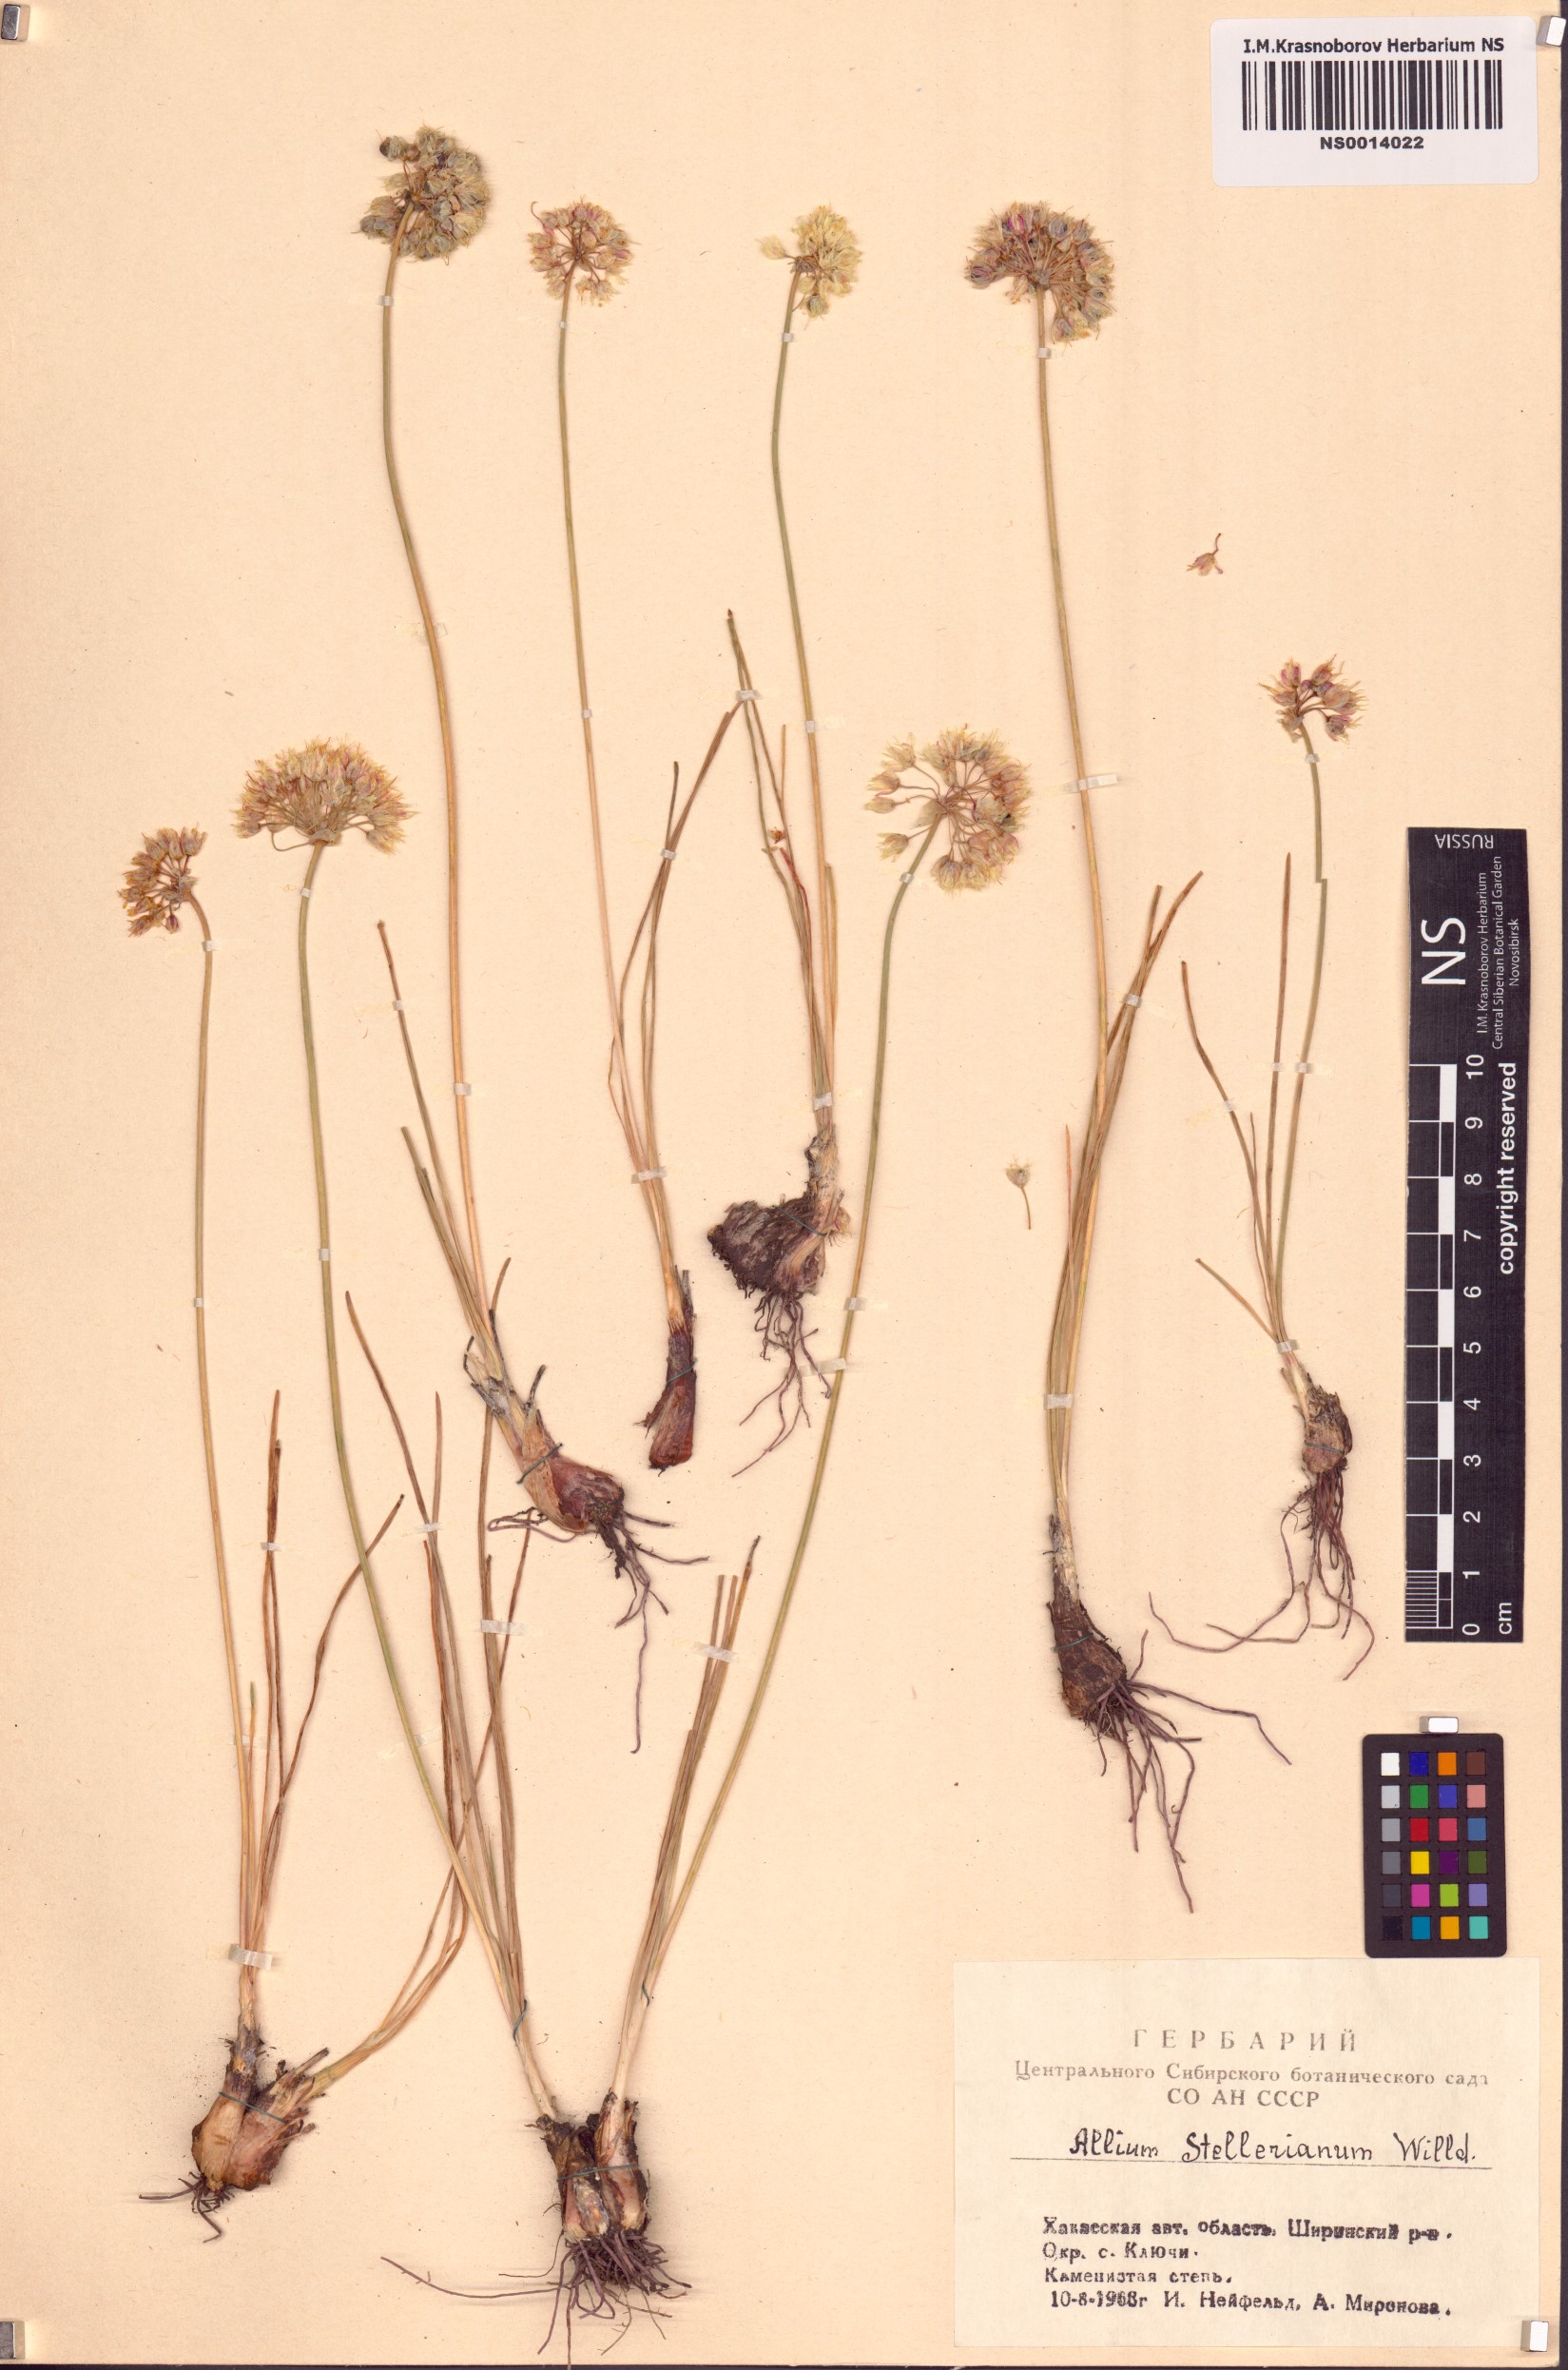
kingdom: Plantae
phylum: Tracheophyta
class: Liliopsida
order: Asparagales
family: Amaryllidaceae
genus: Allium
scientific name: Allium stellerianum
